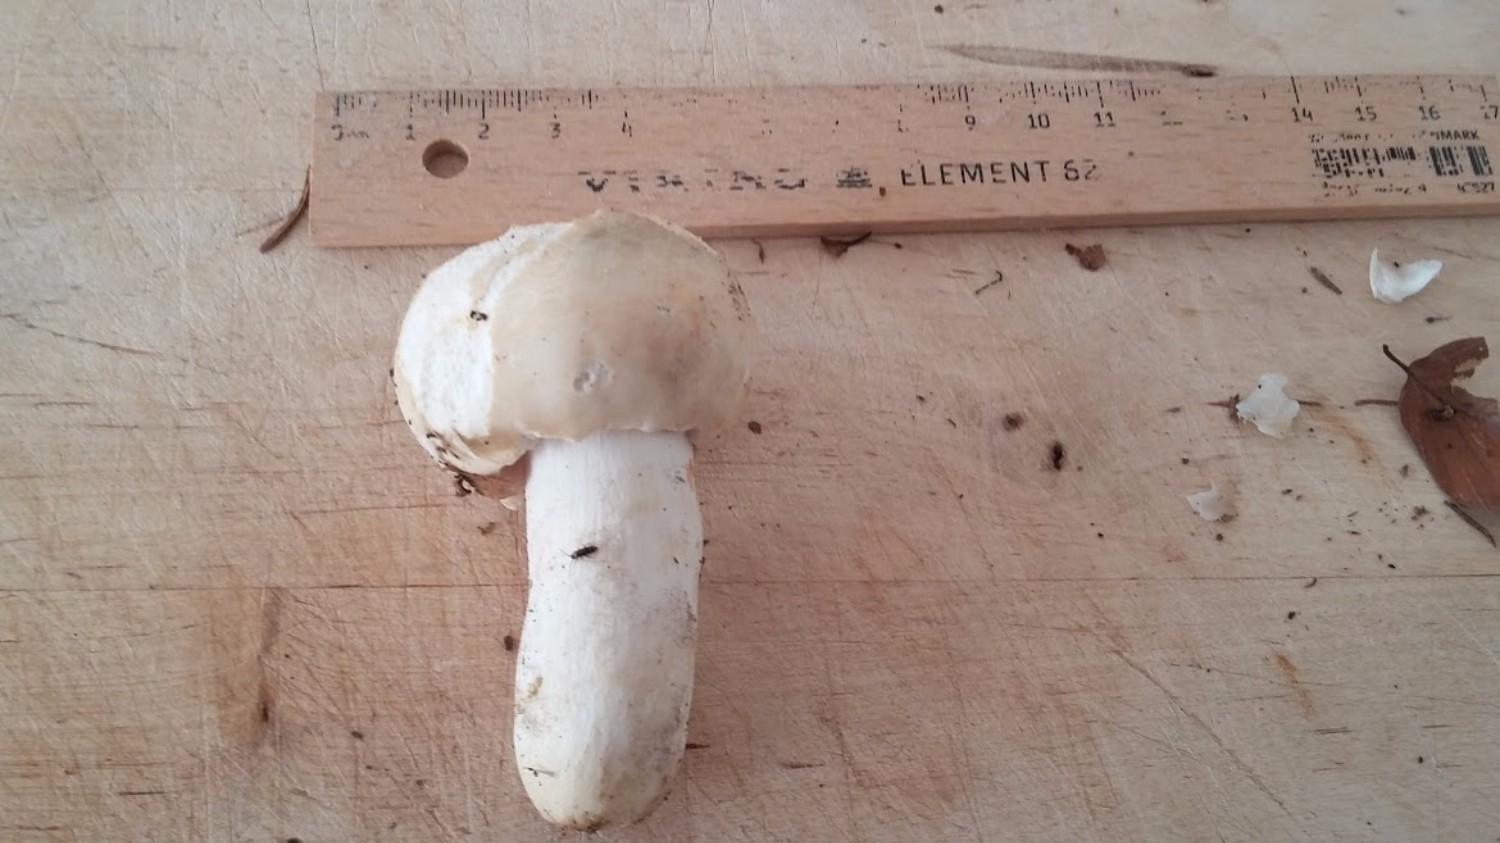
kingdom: Fungi
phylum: Basidiomycota
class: Agaricomycetes
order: Russulales
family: Russulaceae
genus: Russula
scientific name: Russula virescens
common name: spanskgrøn skørhat
